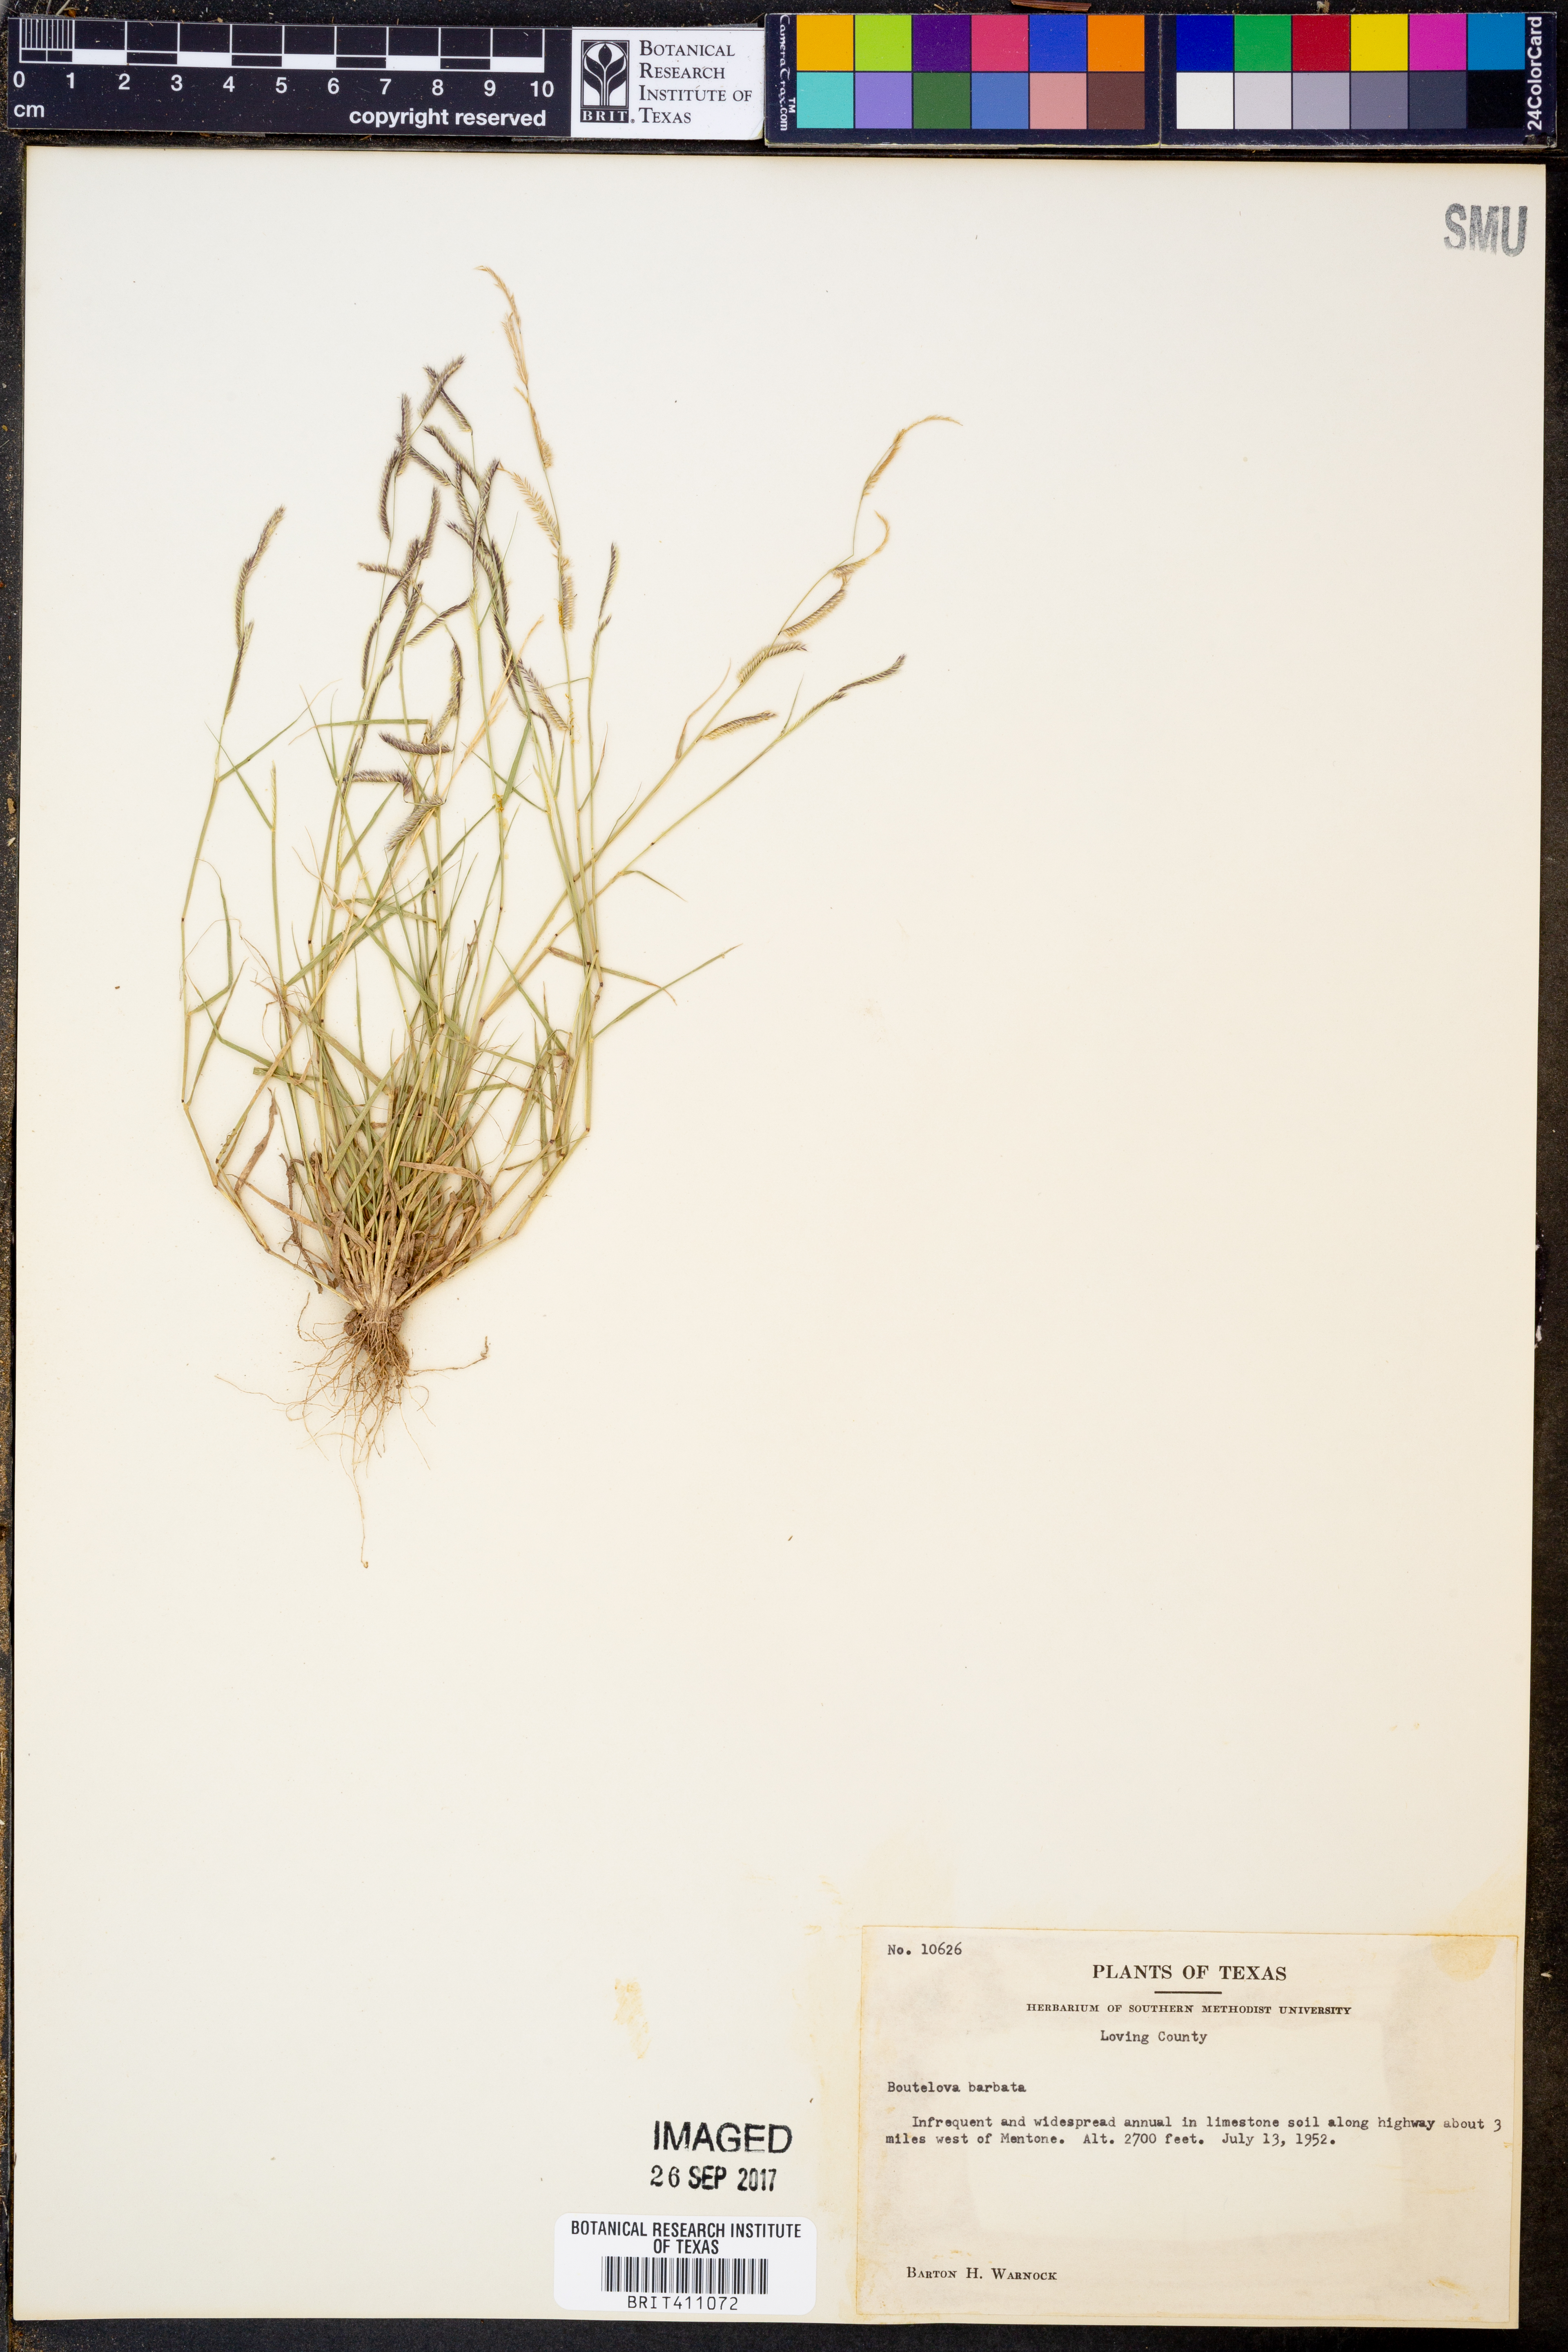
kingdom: Plantae
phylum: Tracheophyta
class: Liliopsida
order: Poales
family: Poaceae
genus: Bouteloua
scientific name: Bouteloua barbata
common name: Six-weeks grama
